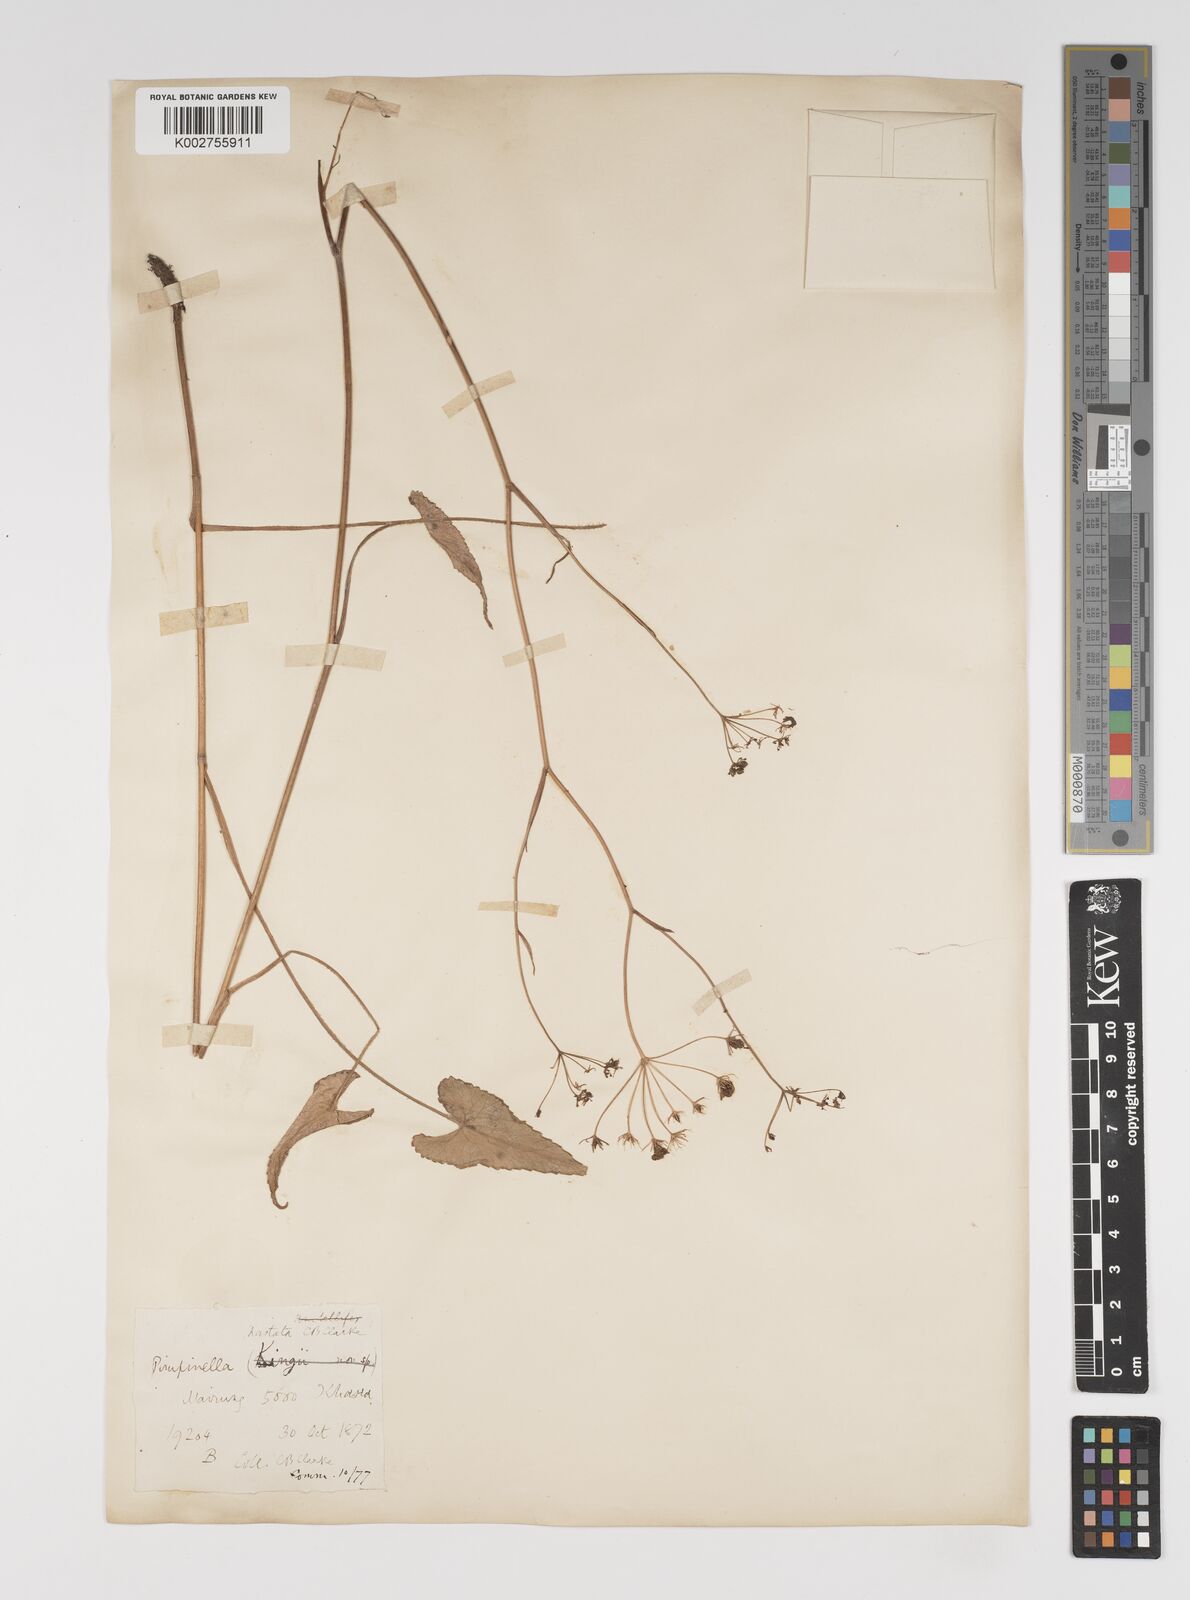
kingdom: Plantae
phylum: Tracheophyta
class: Magnoliopsida
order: Apiales
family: Apiaceae
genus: Pimpinella
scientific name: Pimpinella hastata
